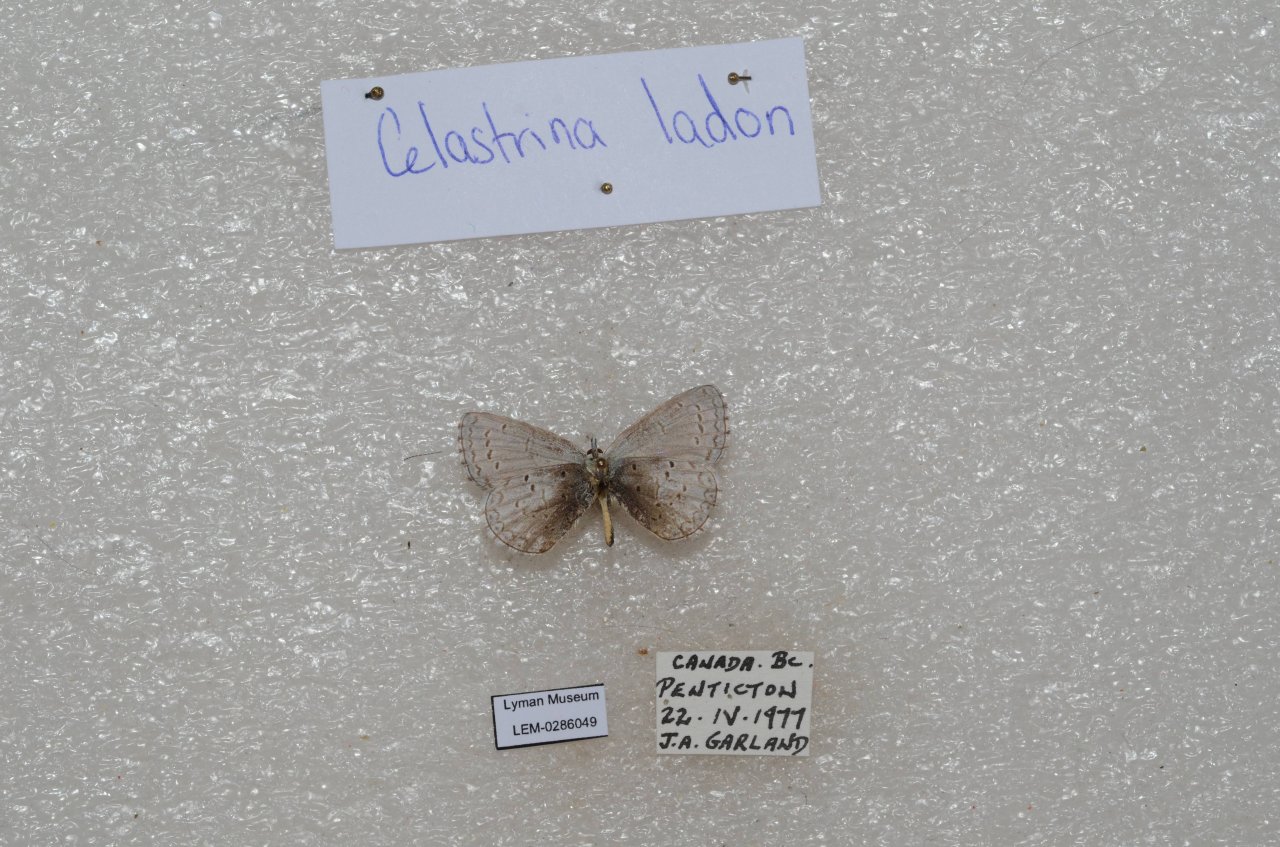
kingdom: Animalia
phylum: Arthropoda
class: Insecta
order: Lepidoptera
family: Lycaenidae
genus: Celastrina
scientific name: Celastrina
